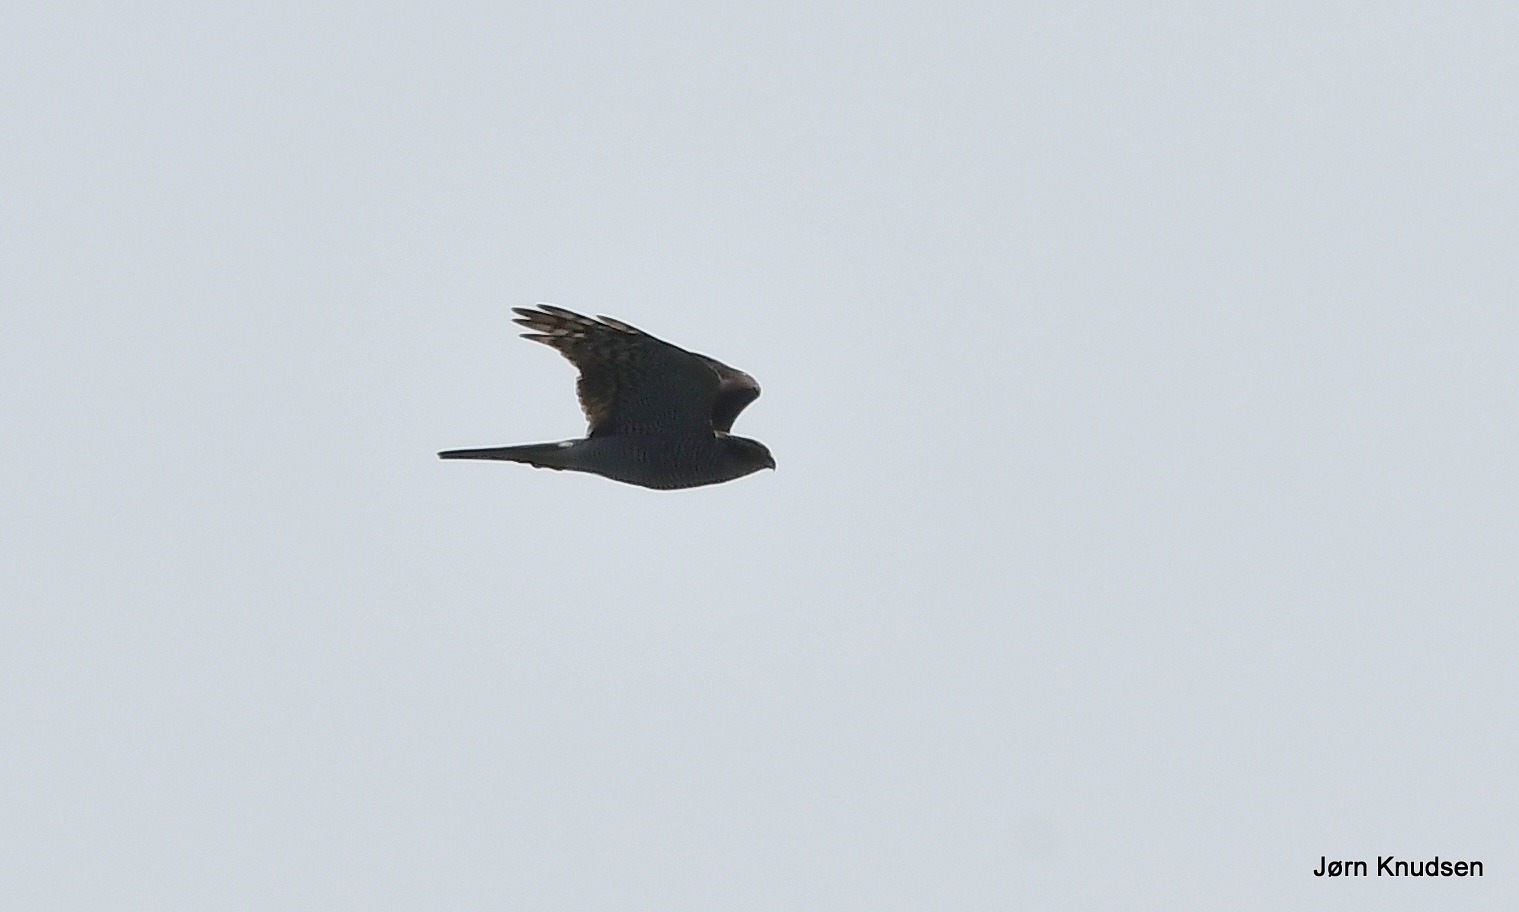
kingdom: Animalia
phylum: Chordata
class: Aves
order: Accipitriformes
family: Accipitridae
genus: Accipiter
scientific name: Accipiter nisus
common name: Spurvehøg
